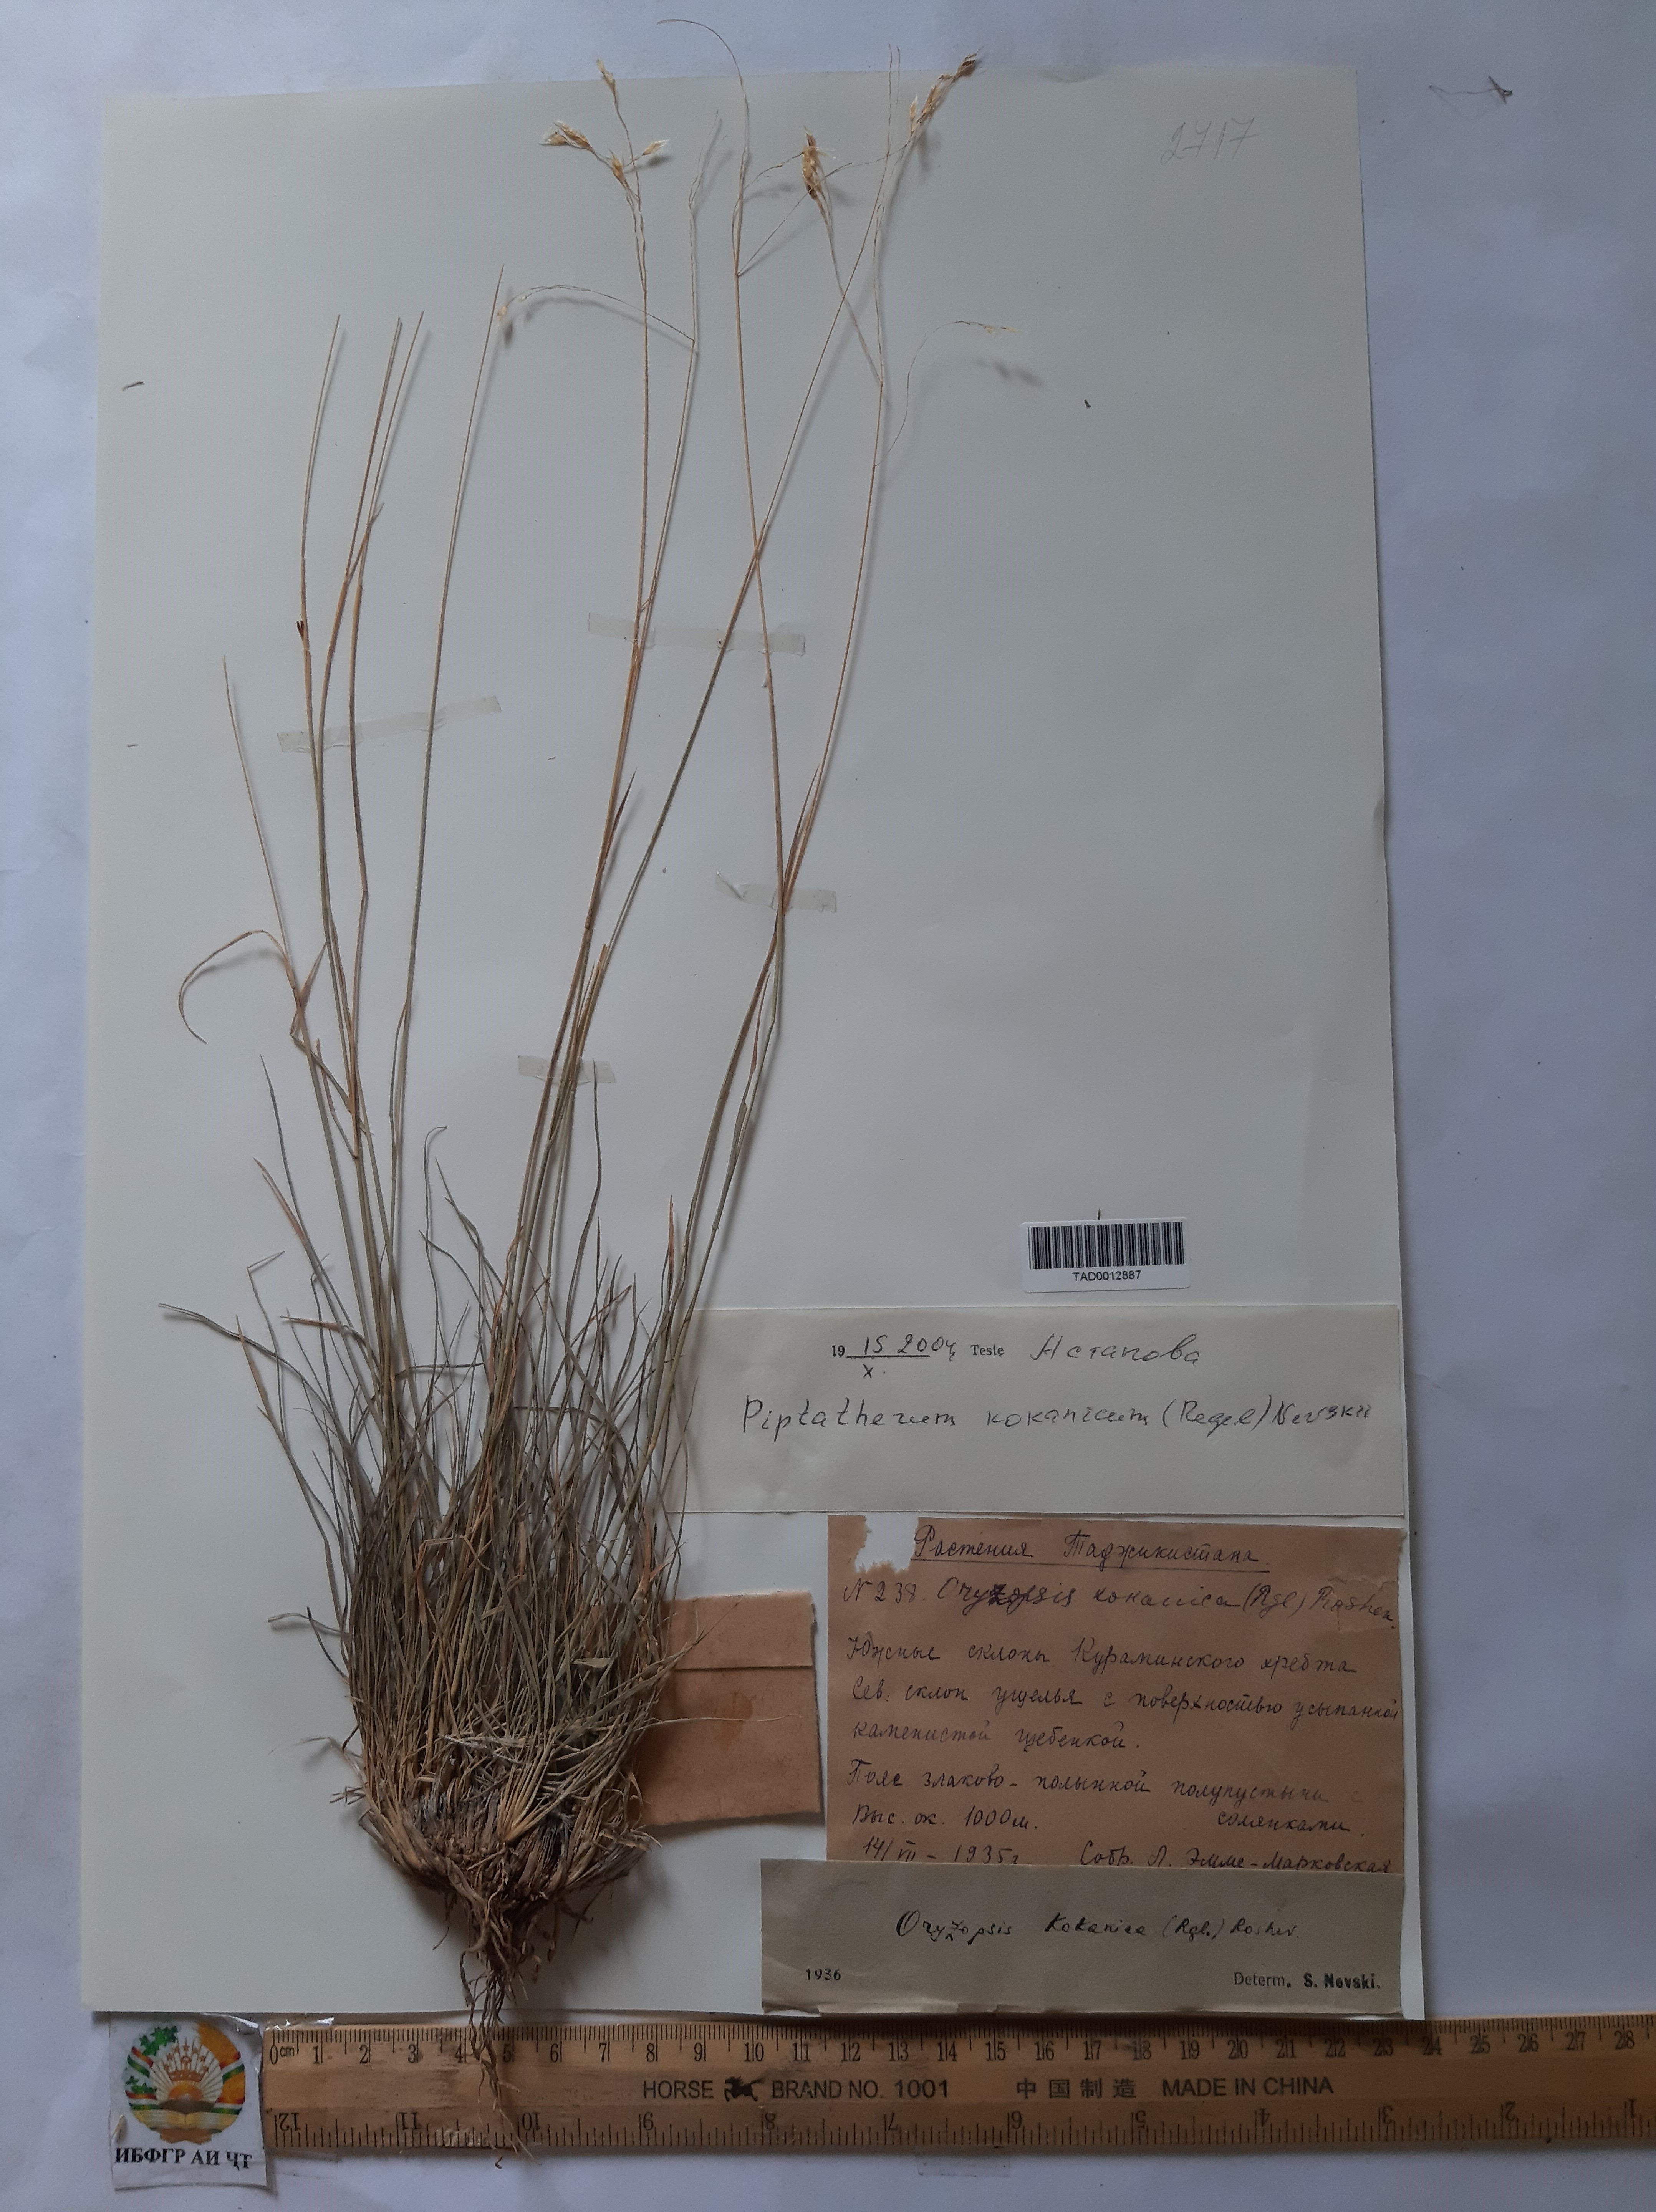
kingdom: Plantae
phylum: Tracheophyta
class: Liliopsida
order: Poales
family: Poaceae
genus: Piptatherum
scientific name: Piptatherum songaricum
